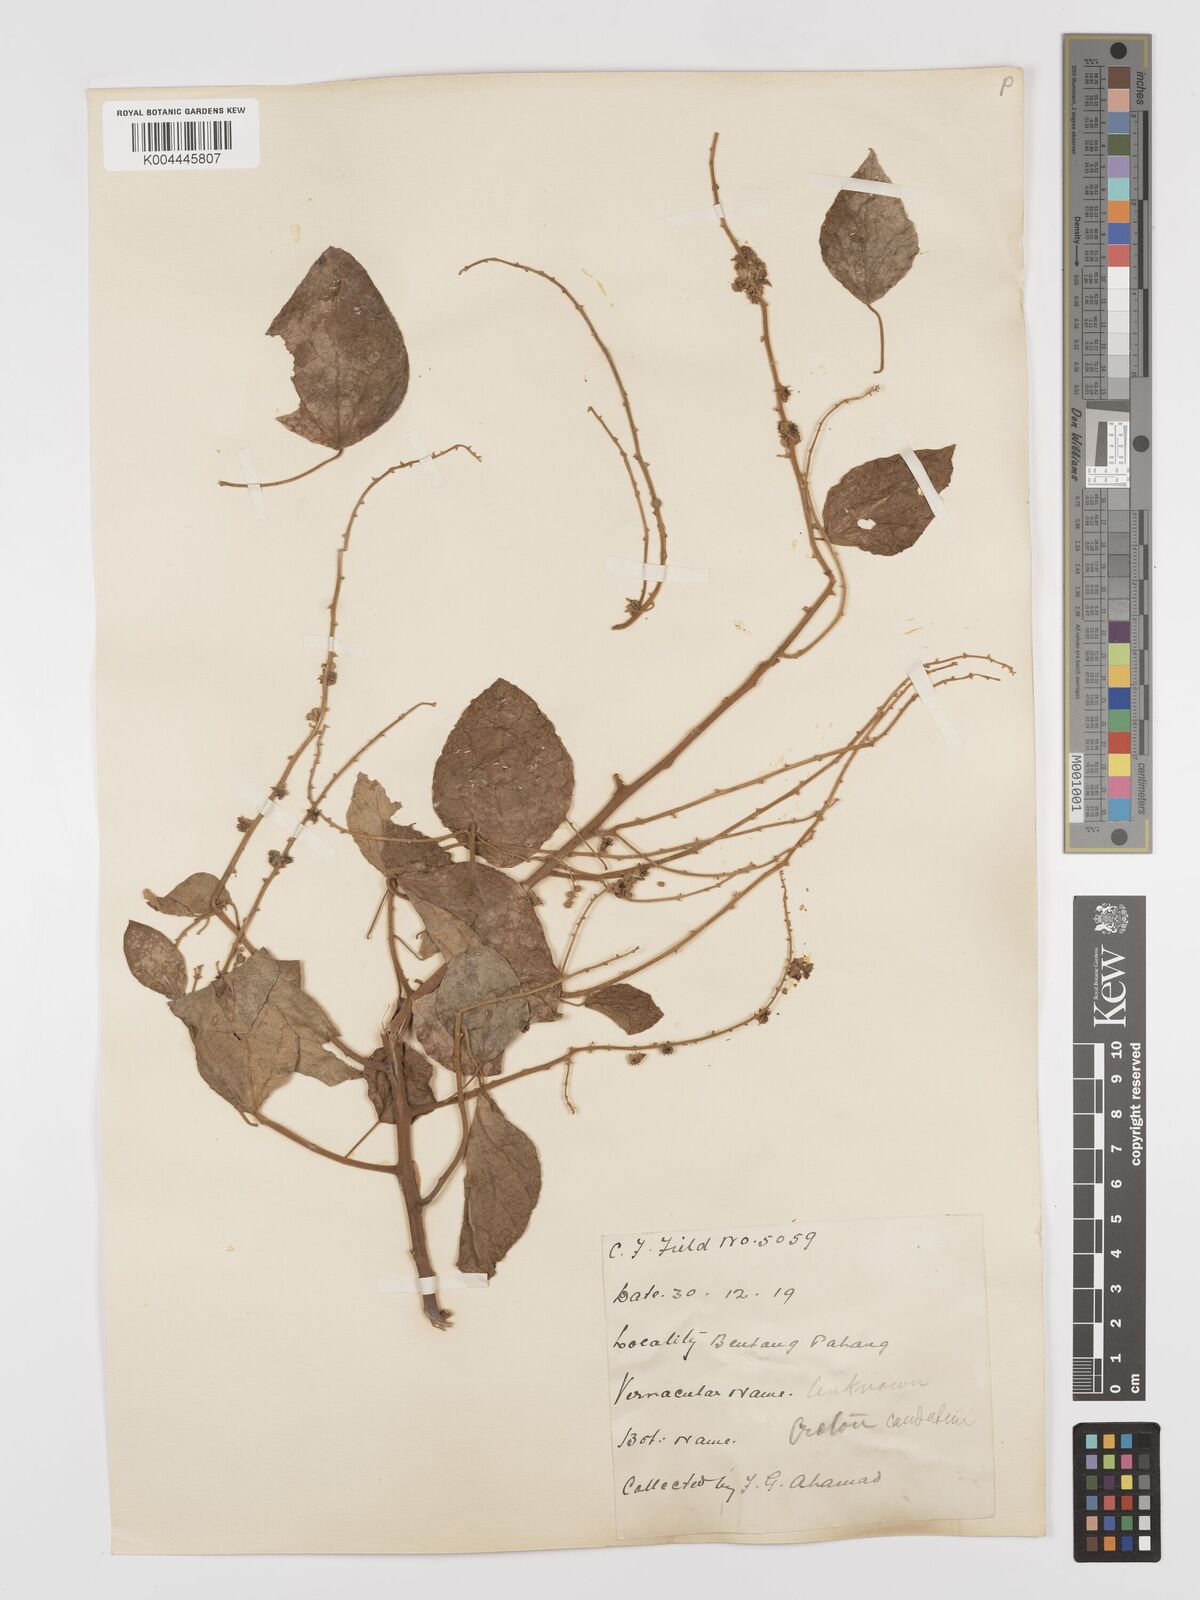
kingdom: Plantae
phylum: Tracheophyta
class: Magnoliopsida
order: Malpighiales
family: Euphorbiaceae
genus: Croton
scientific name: Croton caudatus
